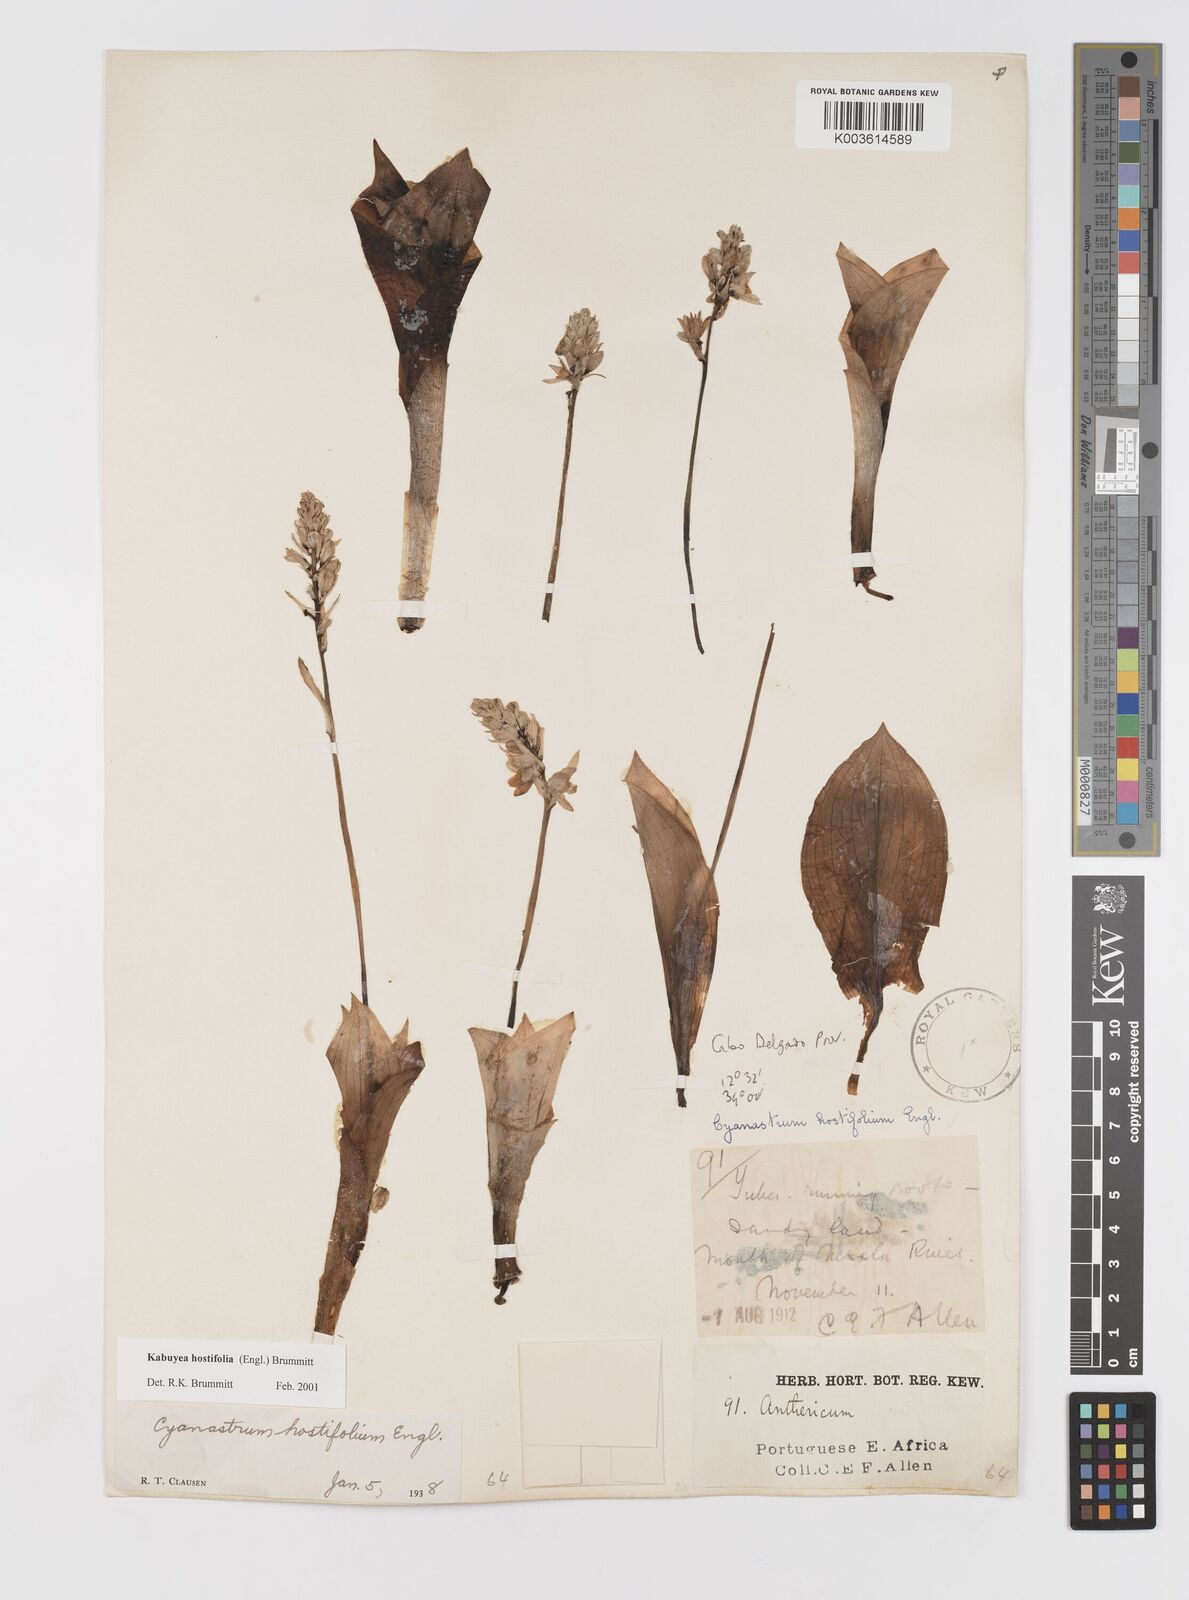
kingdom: Plantae
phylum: Tracheophyta
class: Liliopsida
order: Asparagales
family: Tecophilaeaceae
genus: Kabuyea
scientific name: Kabuyea hostifolia
